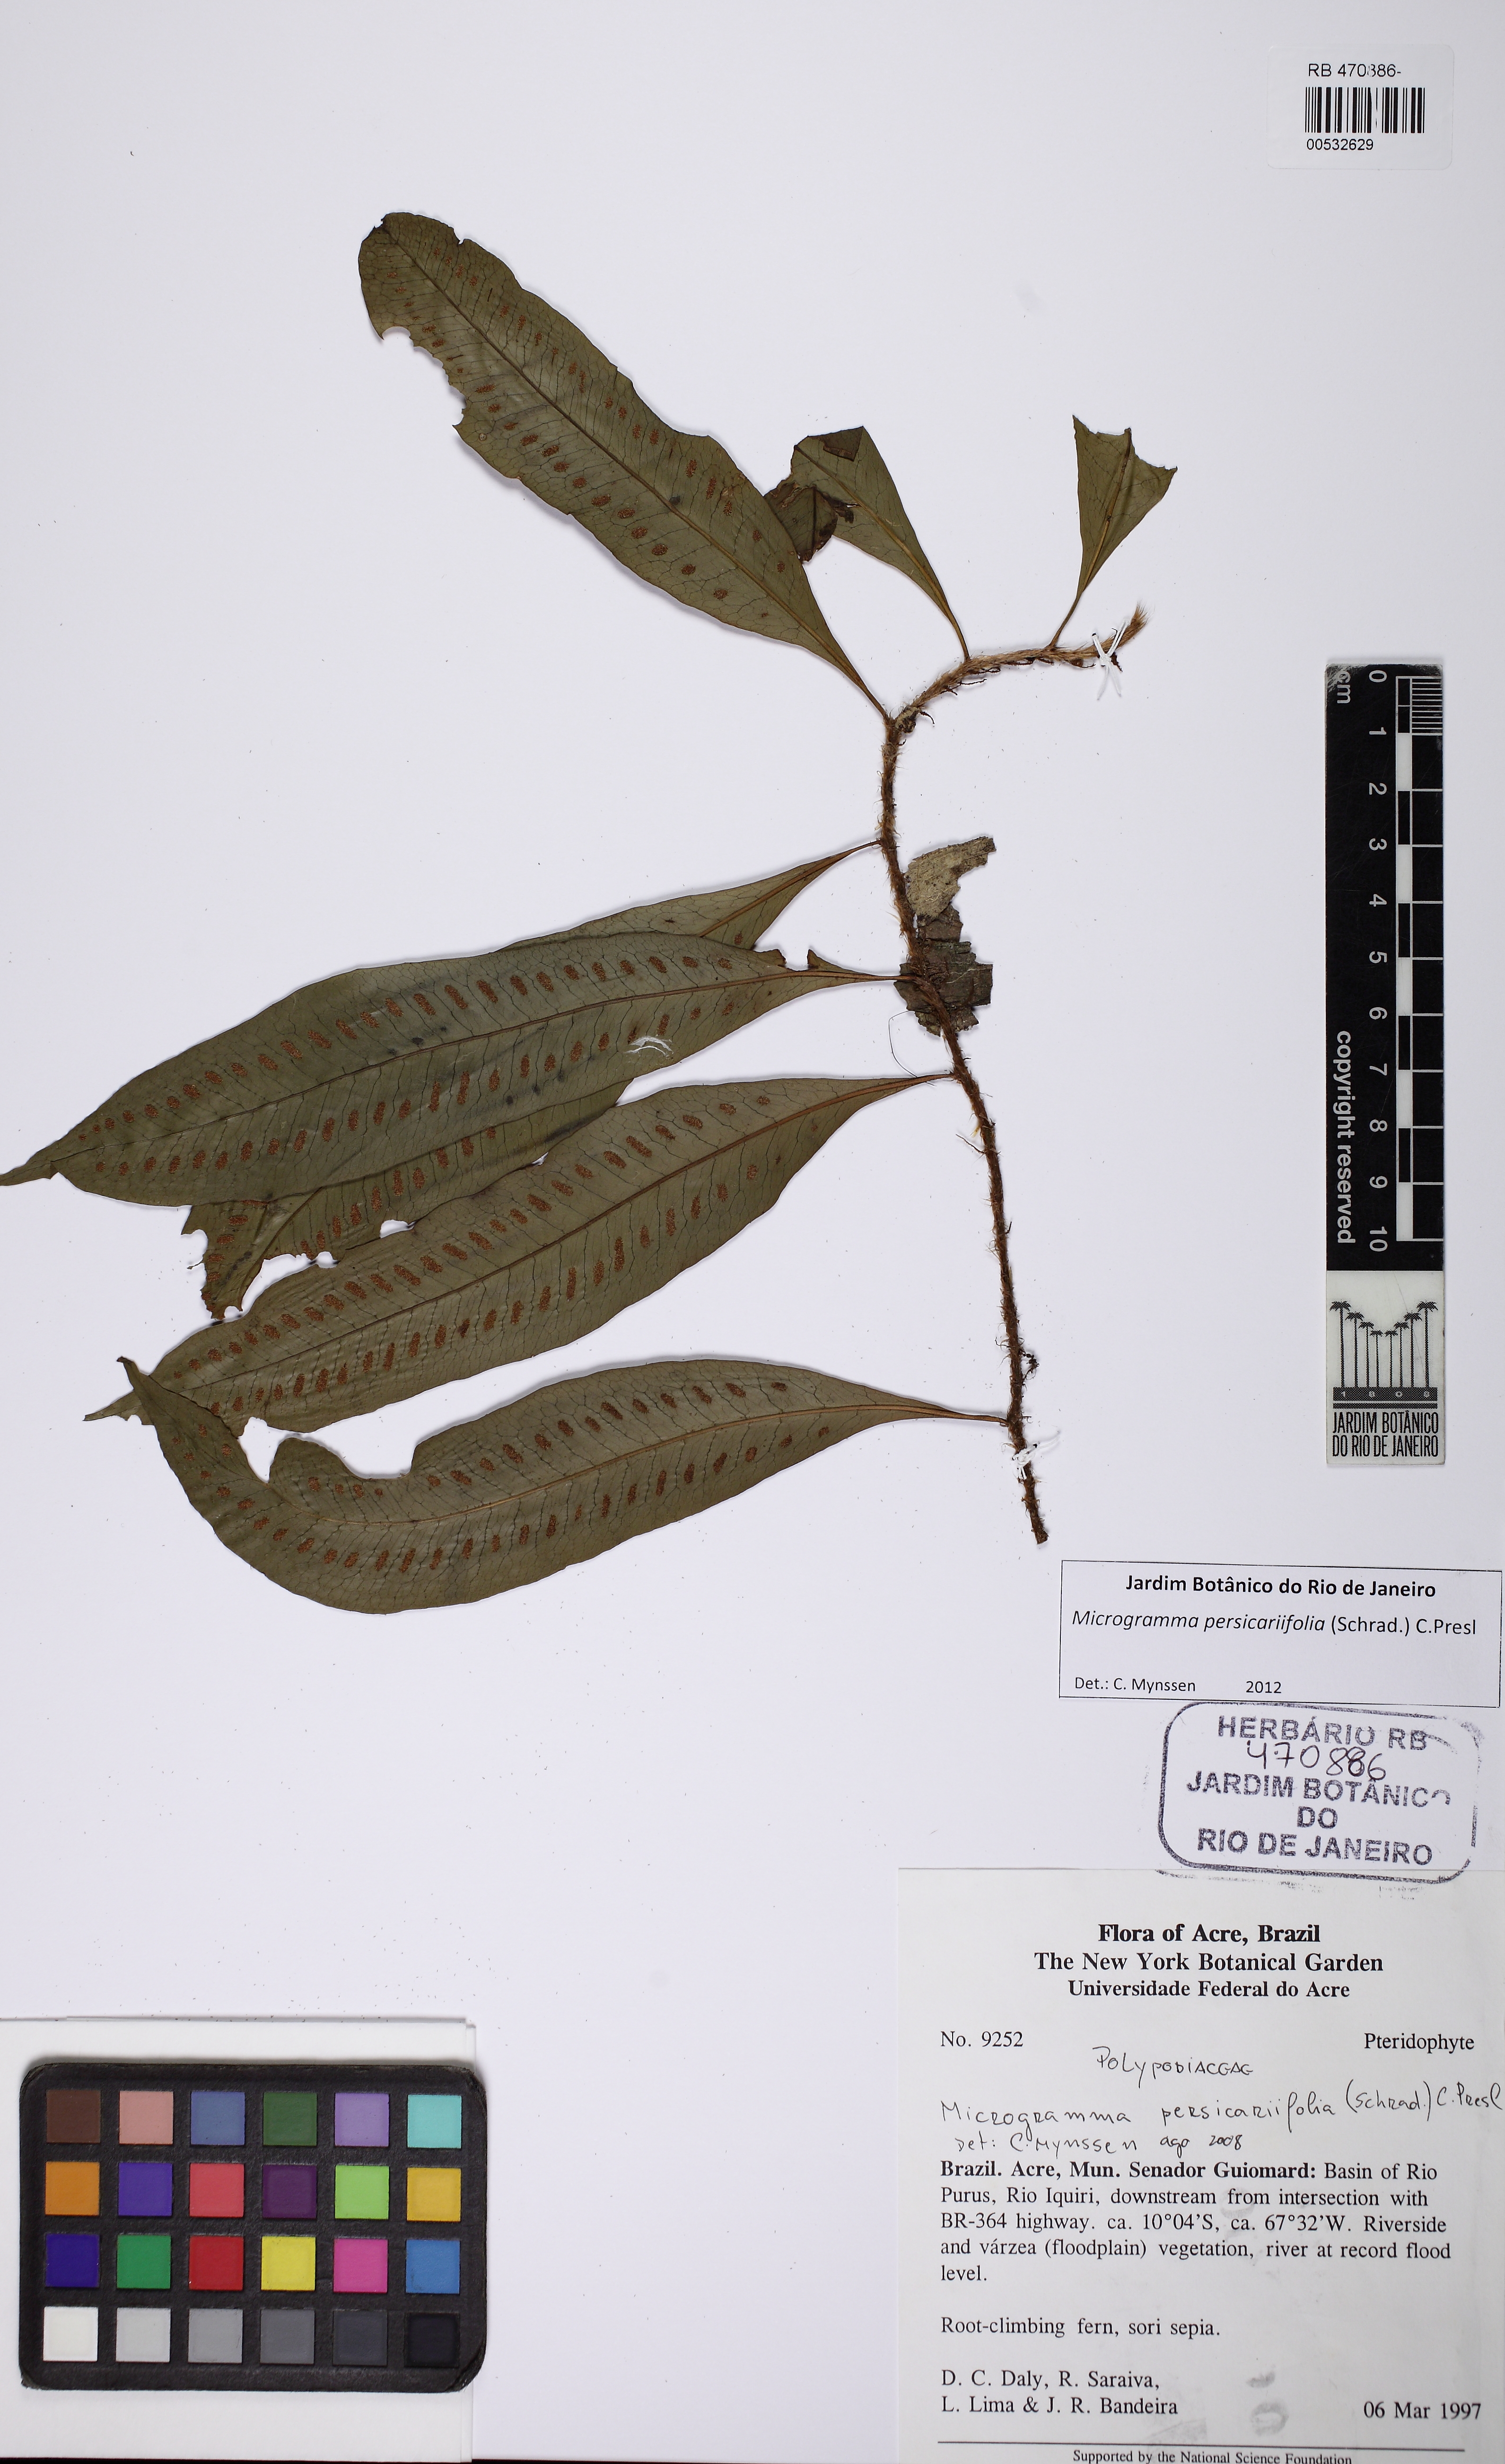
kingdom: Plantae
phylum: Tracheophyta
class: Polypodiopsida
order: Polypodiales
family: Polypodiaceae
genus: Microgramma
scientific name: Microgramma persicariifolia
